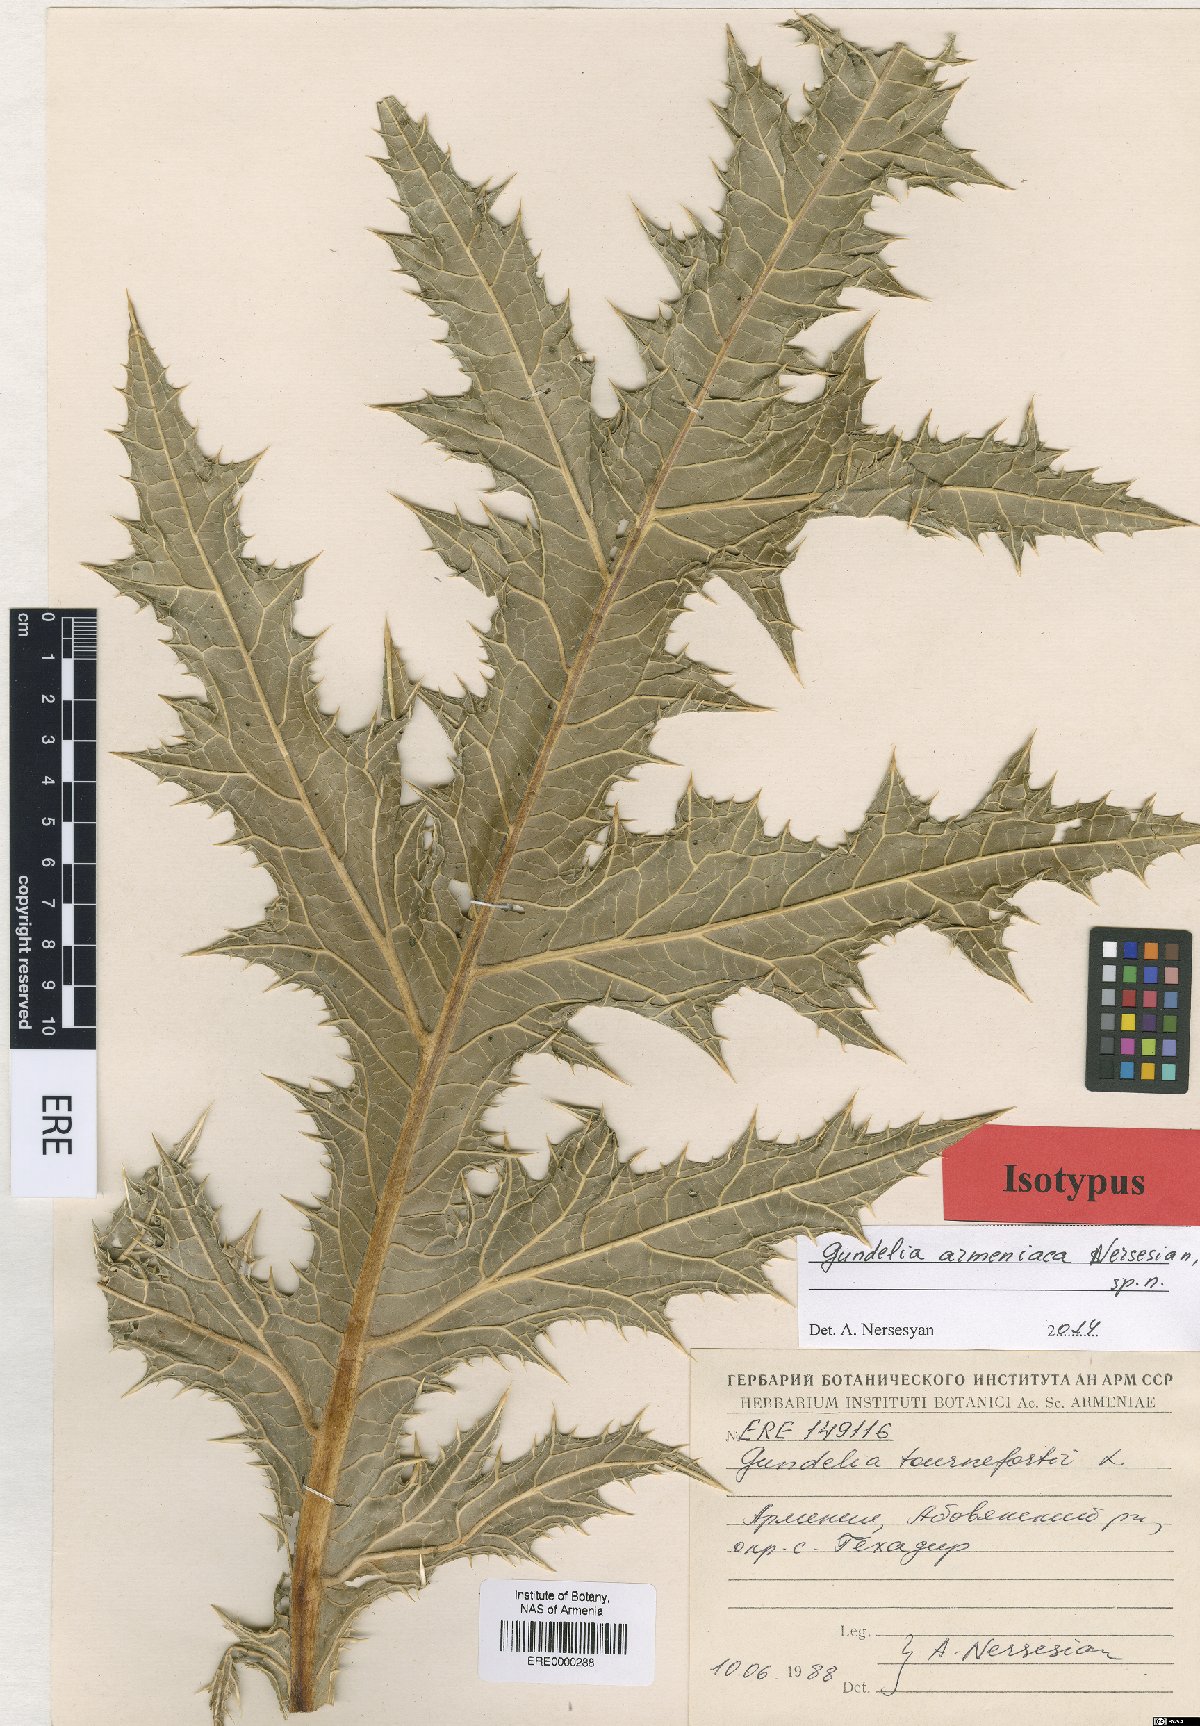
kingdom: Plantae
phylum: Tracheophyta
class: Magnoliopsida
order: Asterales
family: Asteraceae
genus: Gundelia
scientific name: Gundelia armeniaca
